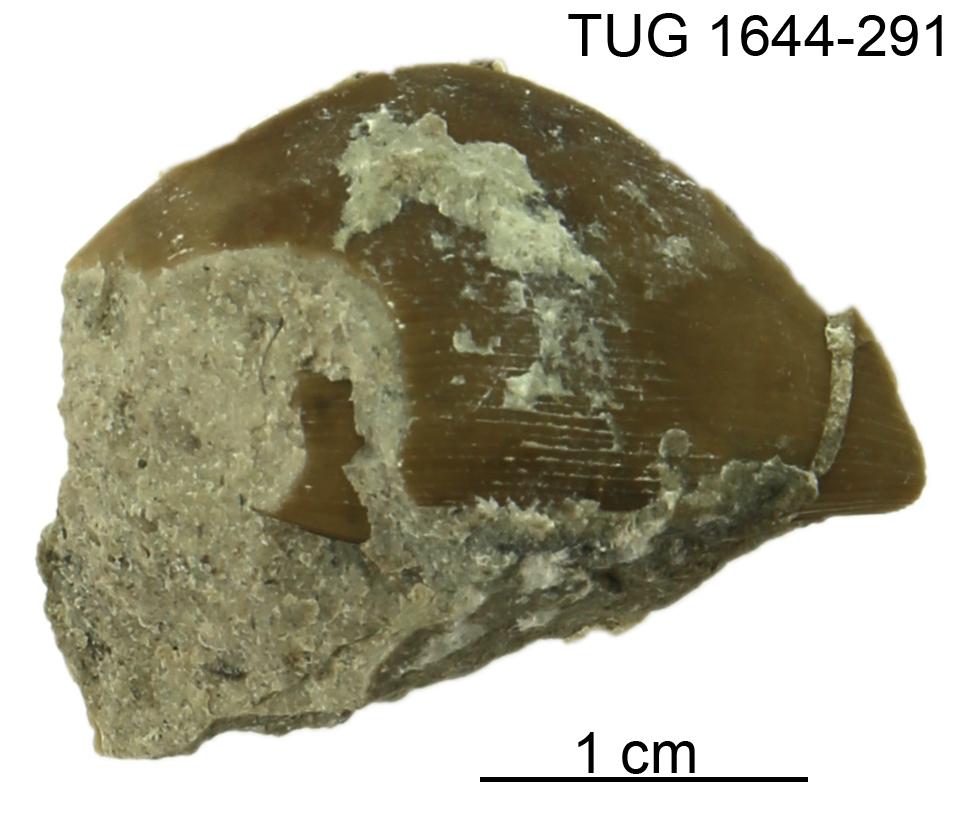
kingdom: Animalia
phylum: Arthropoda
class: Trilobita
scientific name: Trilobita
